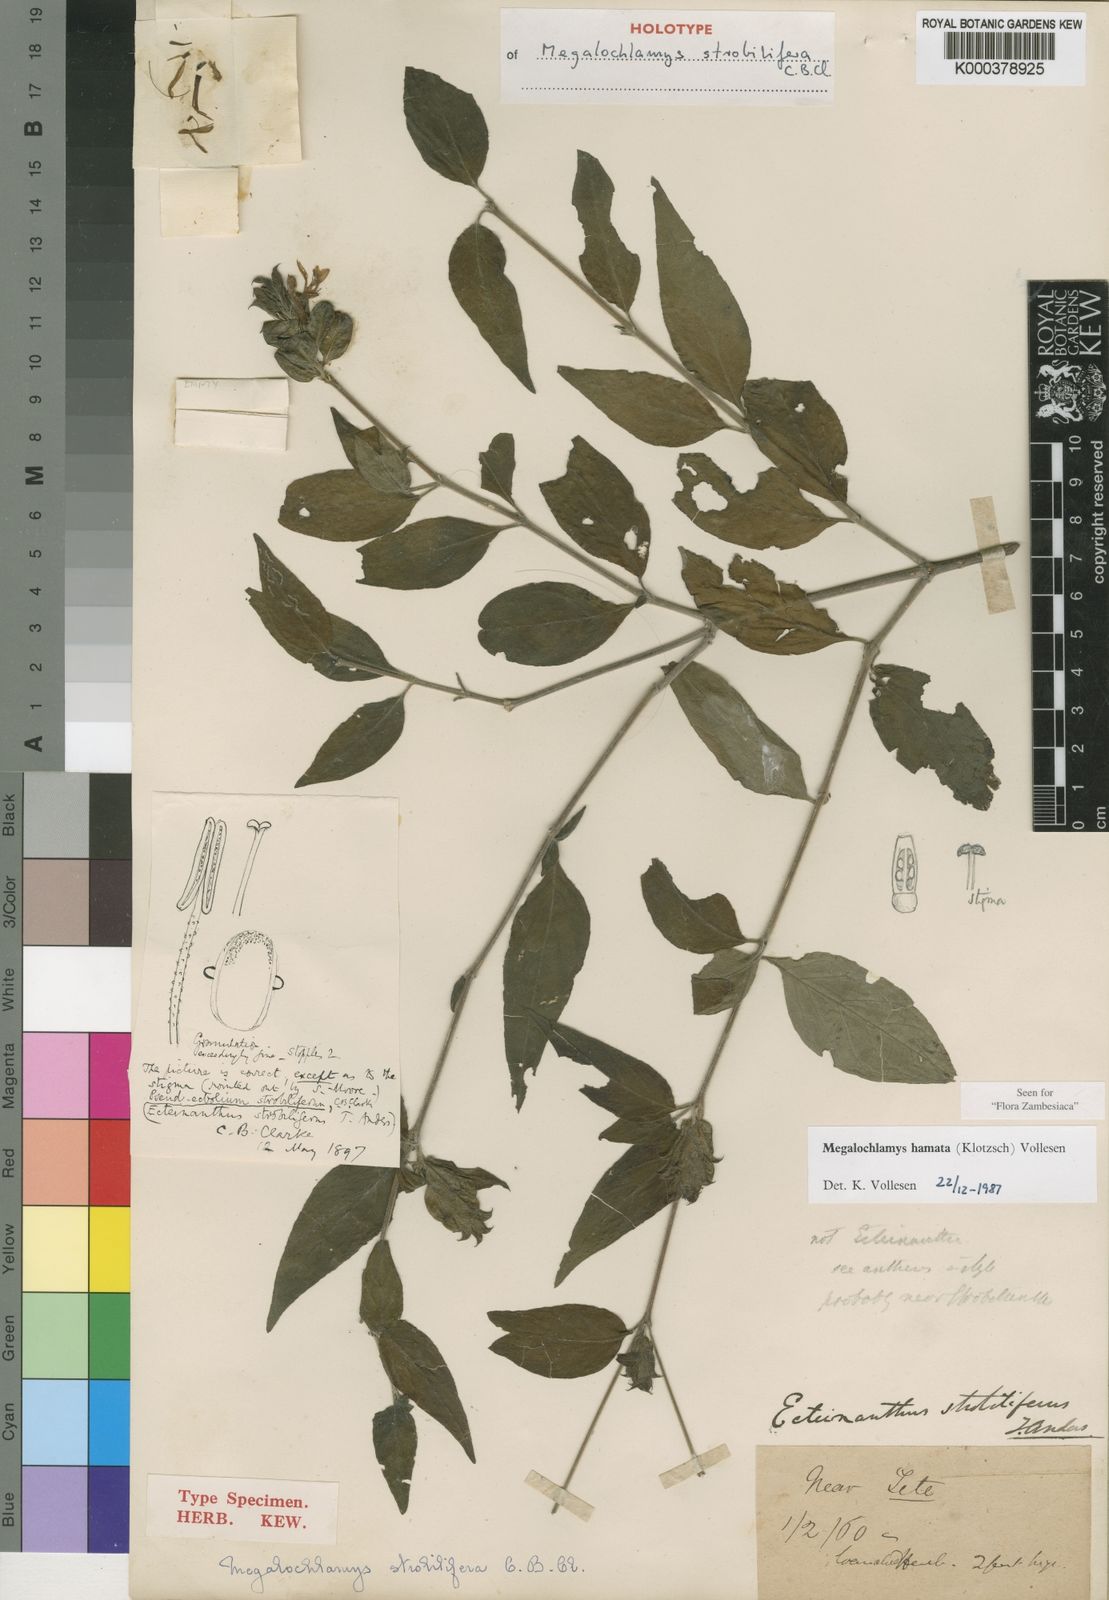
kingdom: Plantae
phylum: Tracheophyta
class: Magnoliopsida
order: Lamiales
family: Acanthaceae
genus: Megalochlamys
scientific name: Megalochlamys hamata
